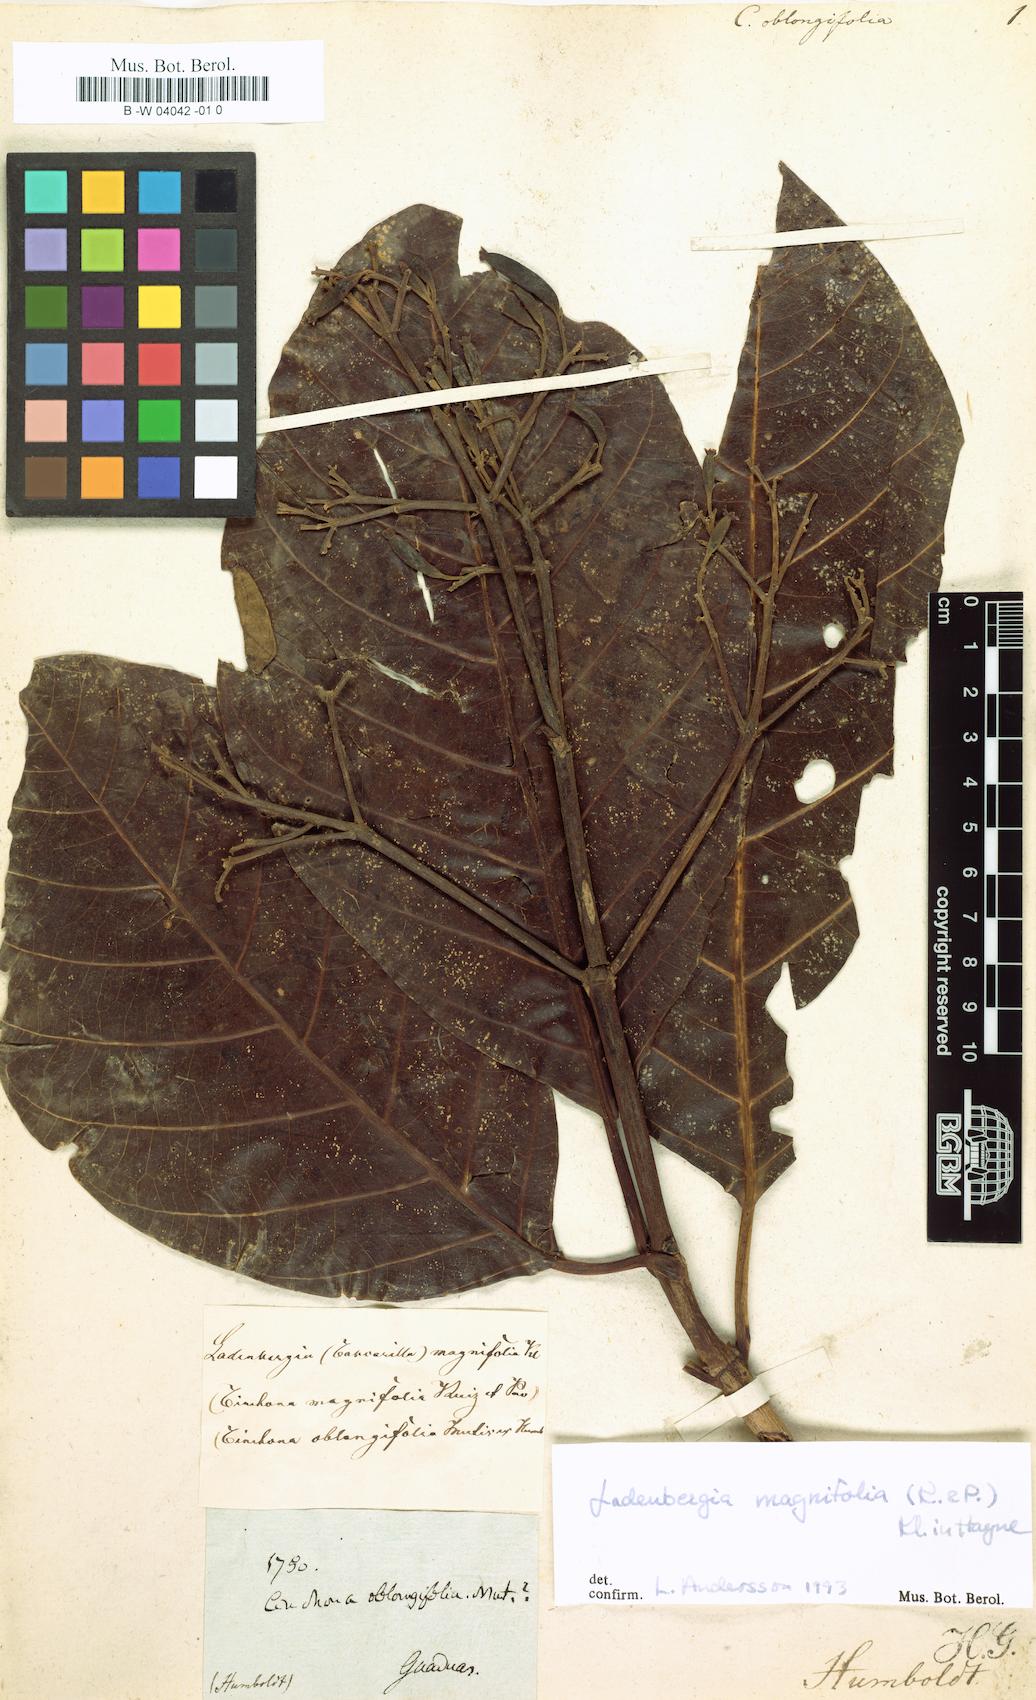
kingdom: Plantae
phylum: Tracheophyta
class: Magnoliopsida
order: Gentianales
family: Rubiaceae
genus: Ladenbergia
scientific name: Ladenbergia
